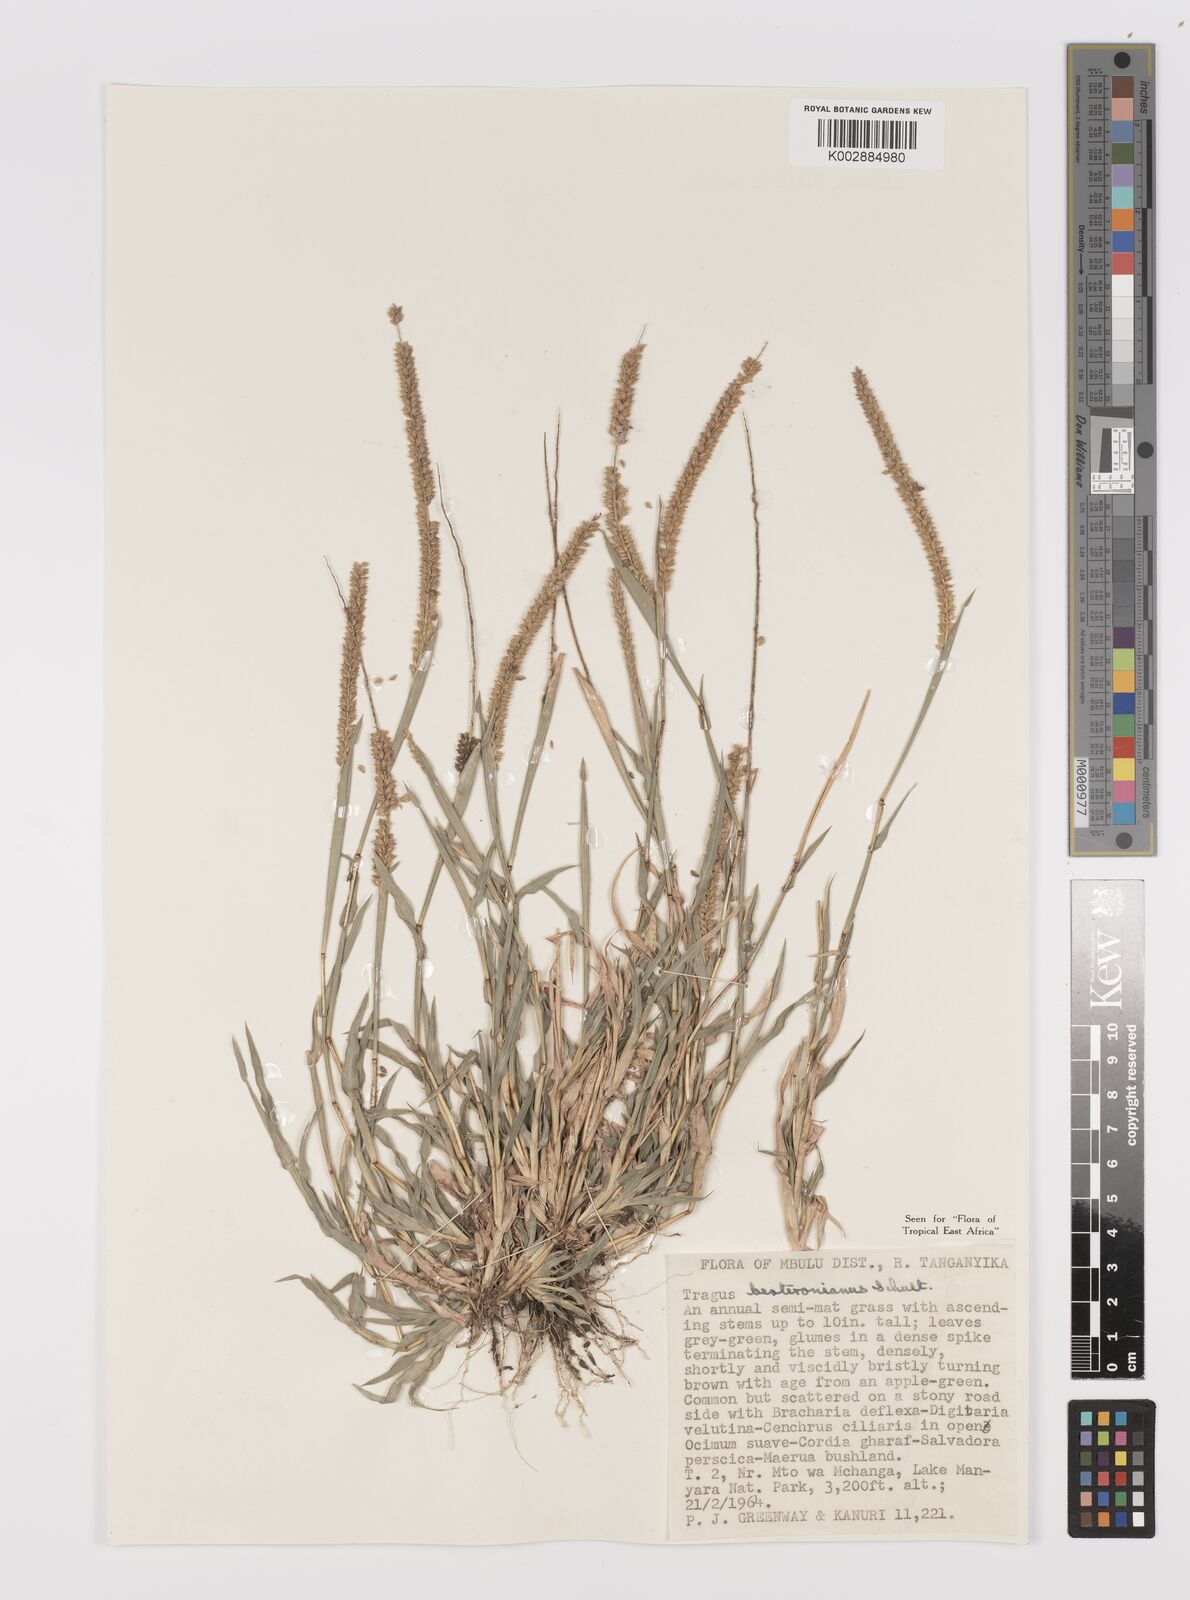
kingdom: Plantae
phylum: Tracheophyta
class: Liliopsida
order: Poales
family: Poaceae
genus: Tragus
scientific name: Tragus berteronianus
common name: African bur-grass
